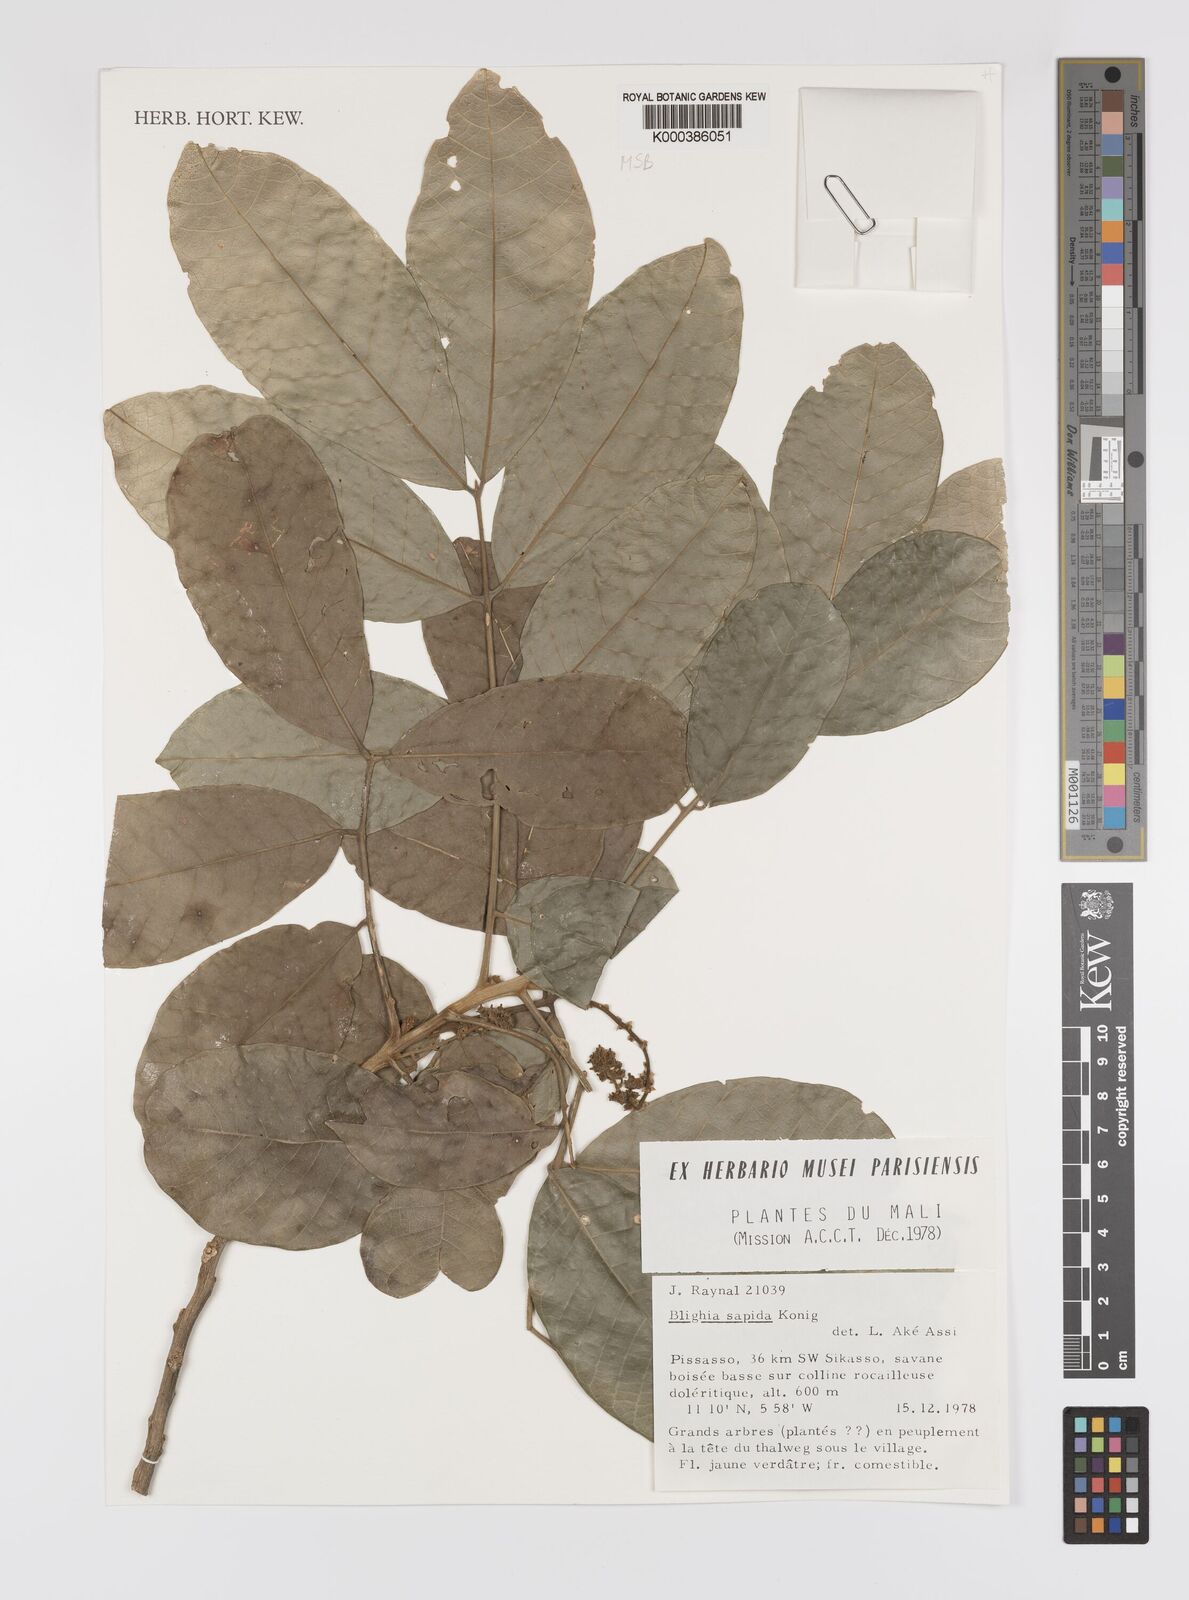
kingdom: Plantae
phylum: Tracheophyta
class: Magnoliopsida
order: Sapindales
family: Sapindaceae
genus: Blighia
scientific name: Blighia sapida
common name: Akee
